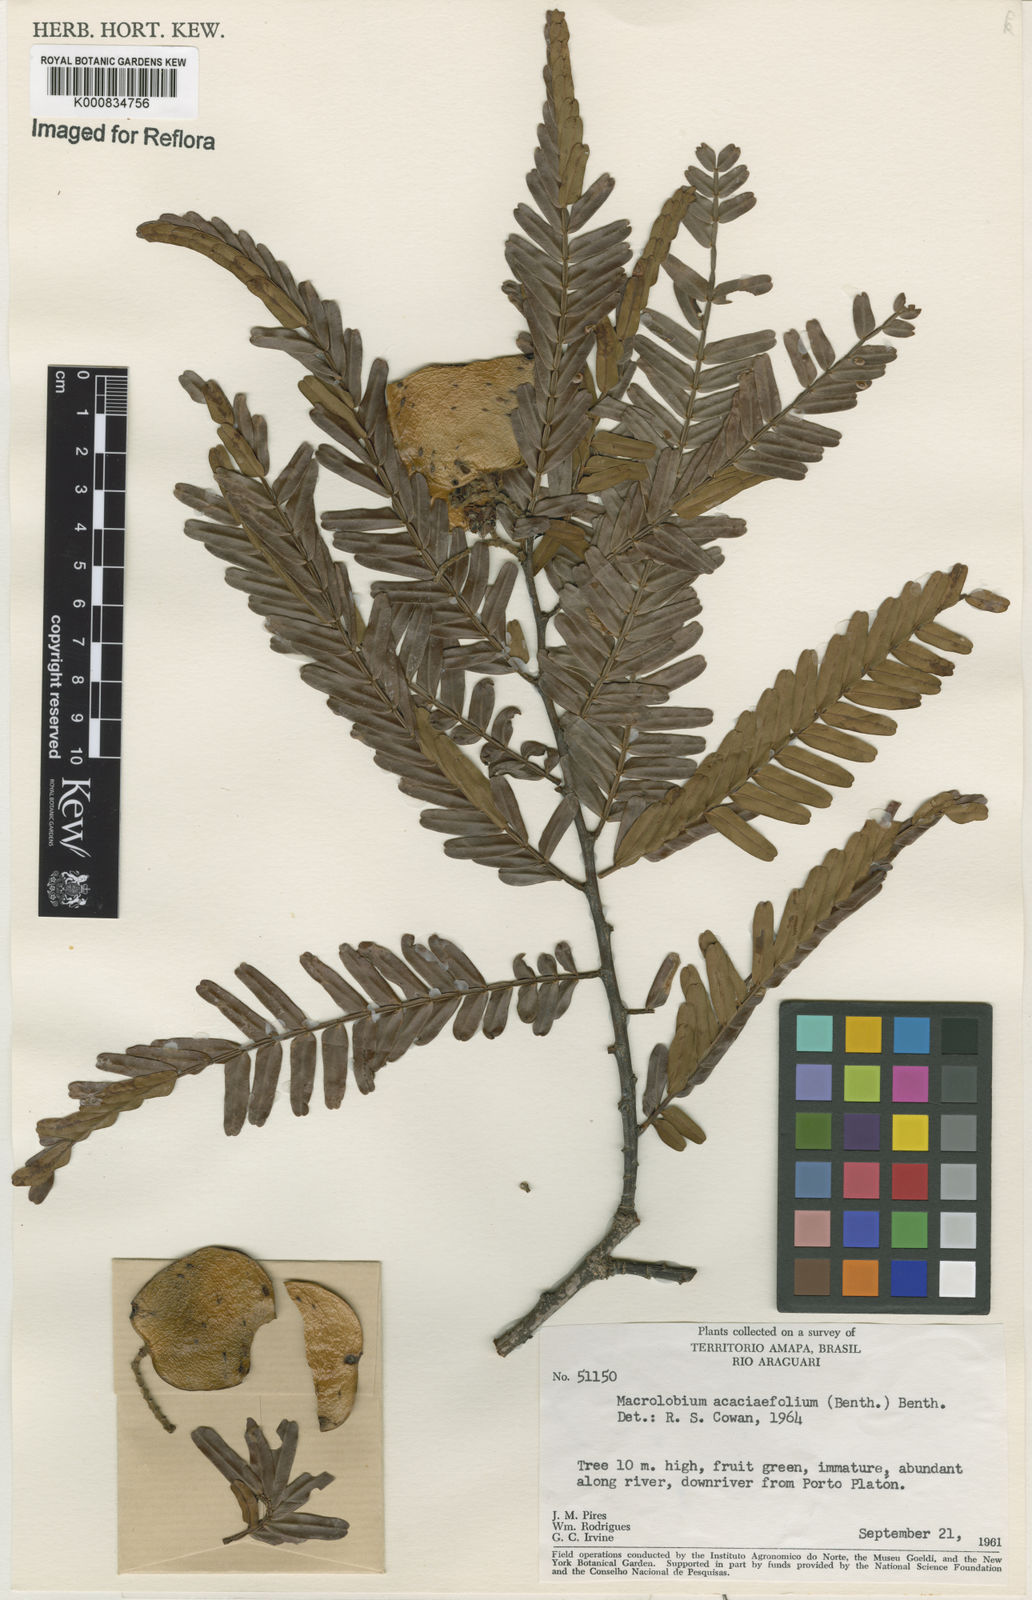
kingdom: Plantae
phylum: Tracheophyta
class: Magnoliopsida
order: Fabales
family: Fabaceae
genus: Macrolobium
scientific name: Macrolobium acaciifolium
